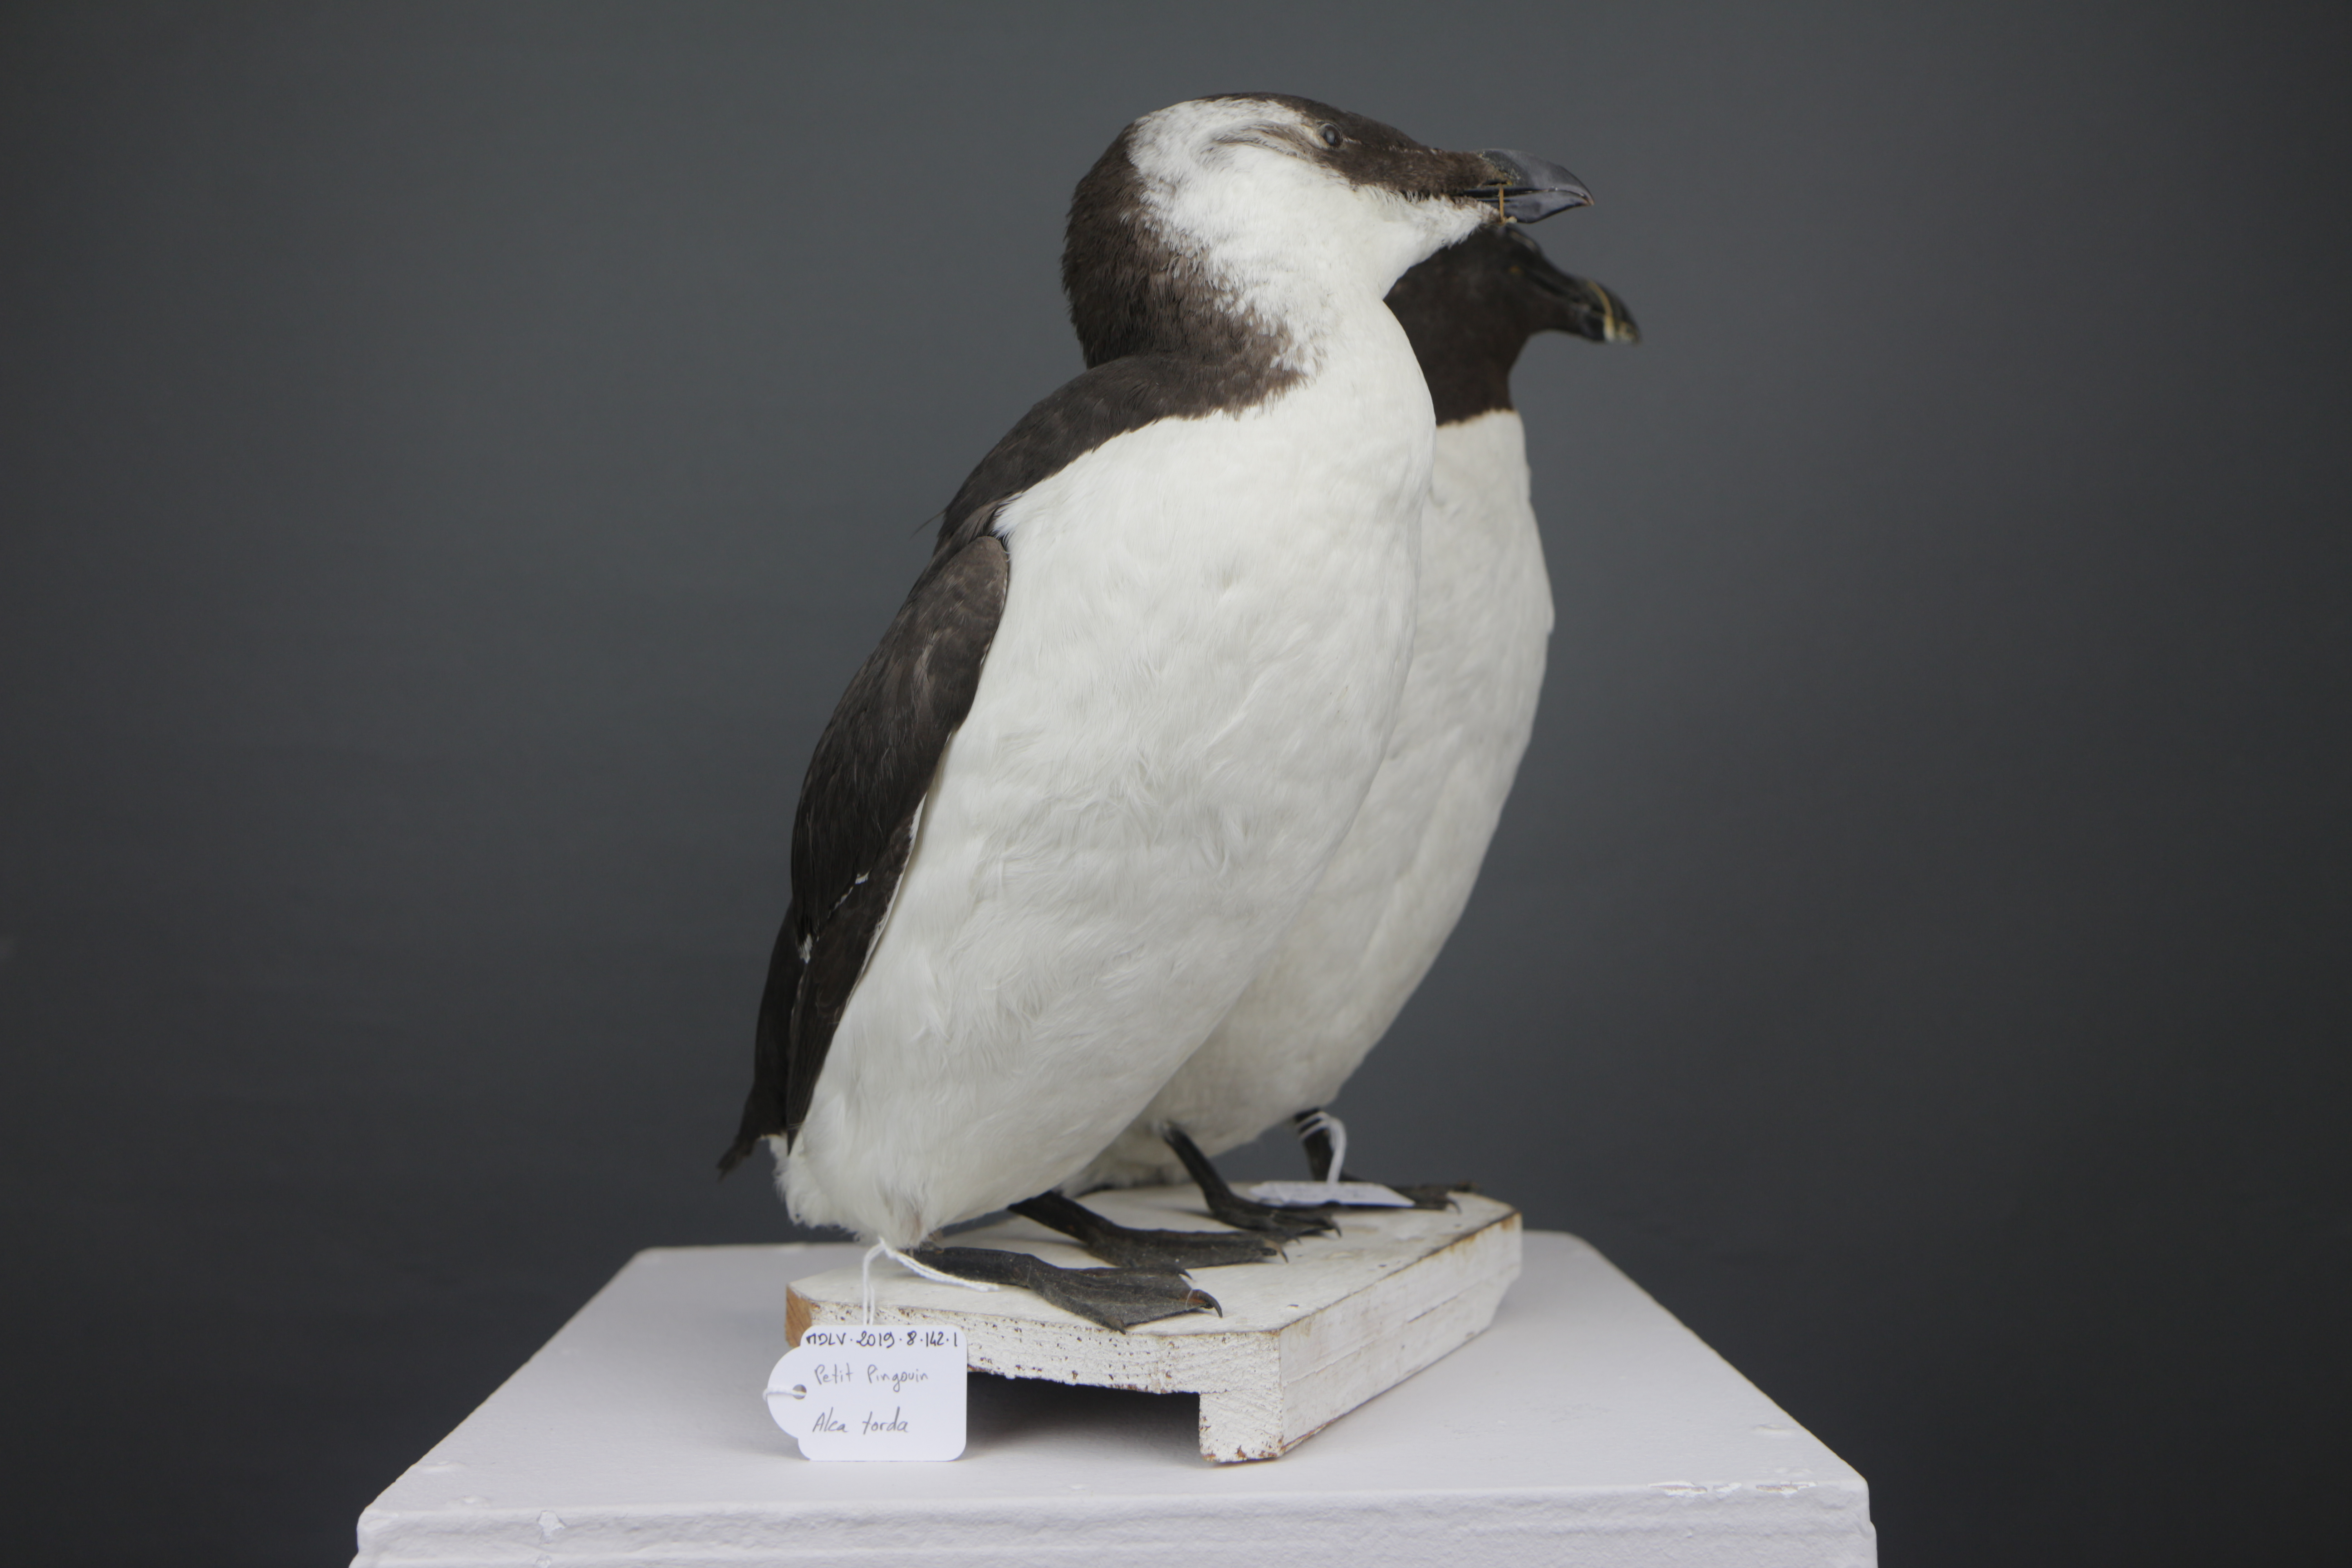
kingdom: Animalia
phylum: Chordata
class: Aves
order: Charadriiformes
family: Alcidae
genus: Alca
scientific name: Alca torda
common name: Razorbill
